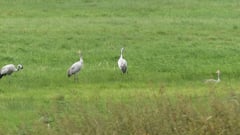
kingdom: Animalia
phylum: Chordata
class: Aves
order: Gruiformes
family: Gruidae
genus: Grus
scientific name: Grus grus
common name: Common crane
